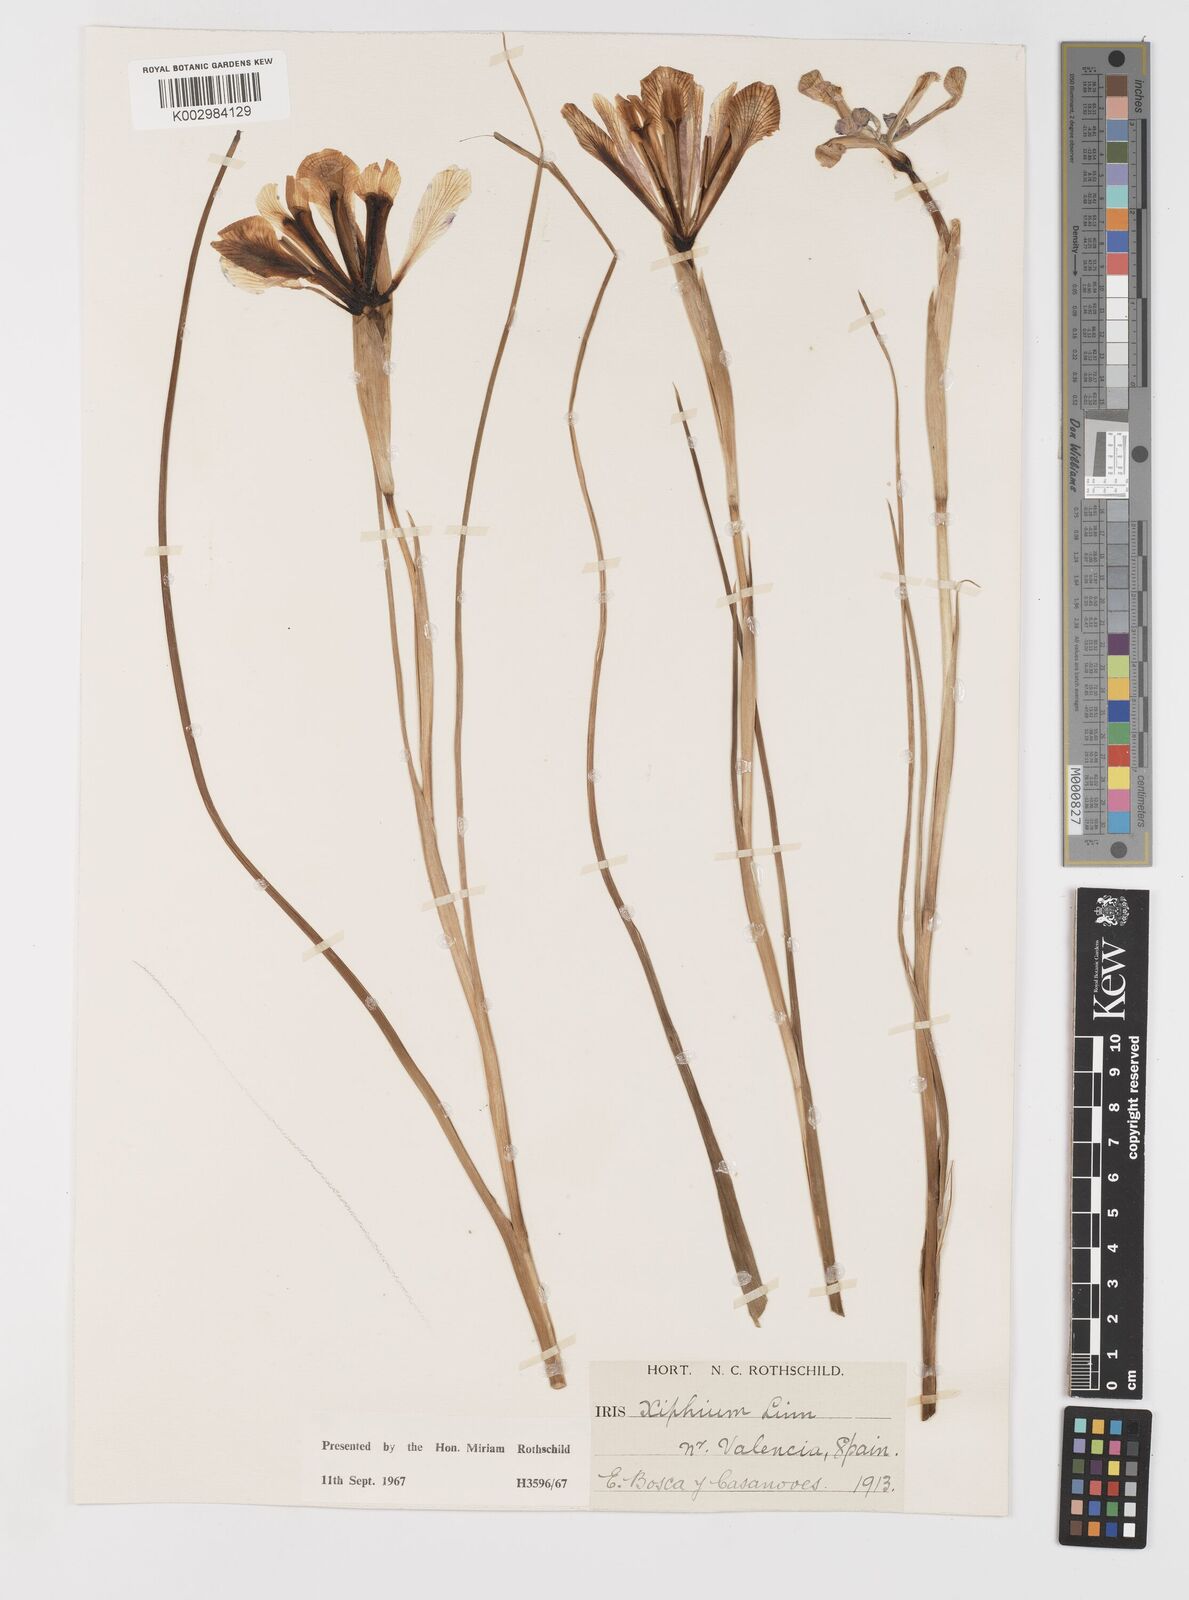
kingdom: Plantae
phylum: Tracheophyta
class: Liliopsida
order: Asparagales
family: Iridaceae
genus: Iris
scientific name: Iris xiphium
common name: Spanish iris
